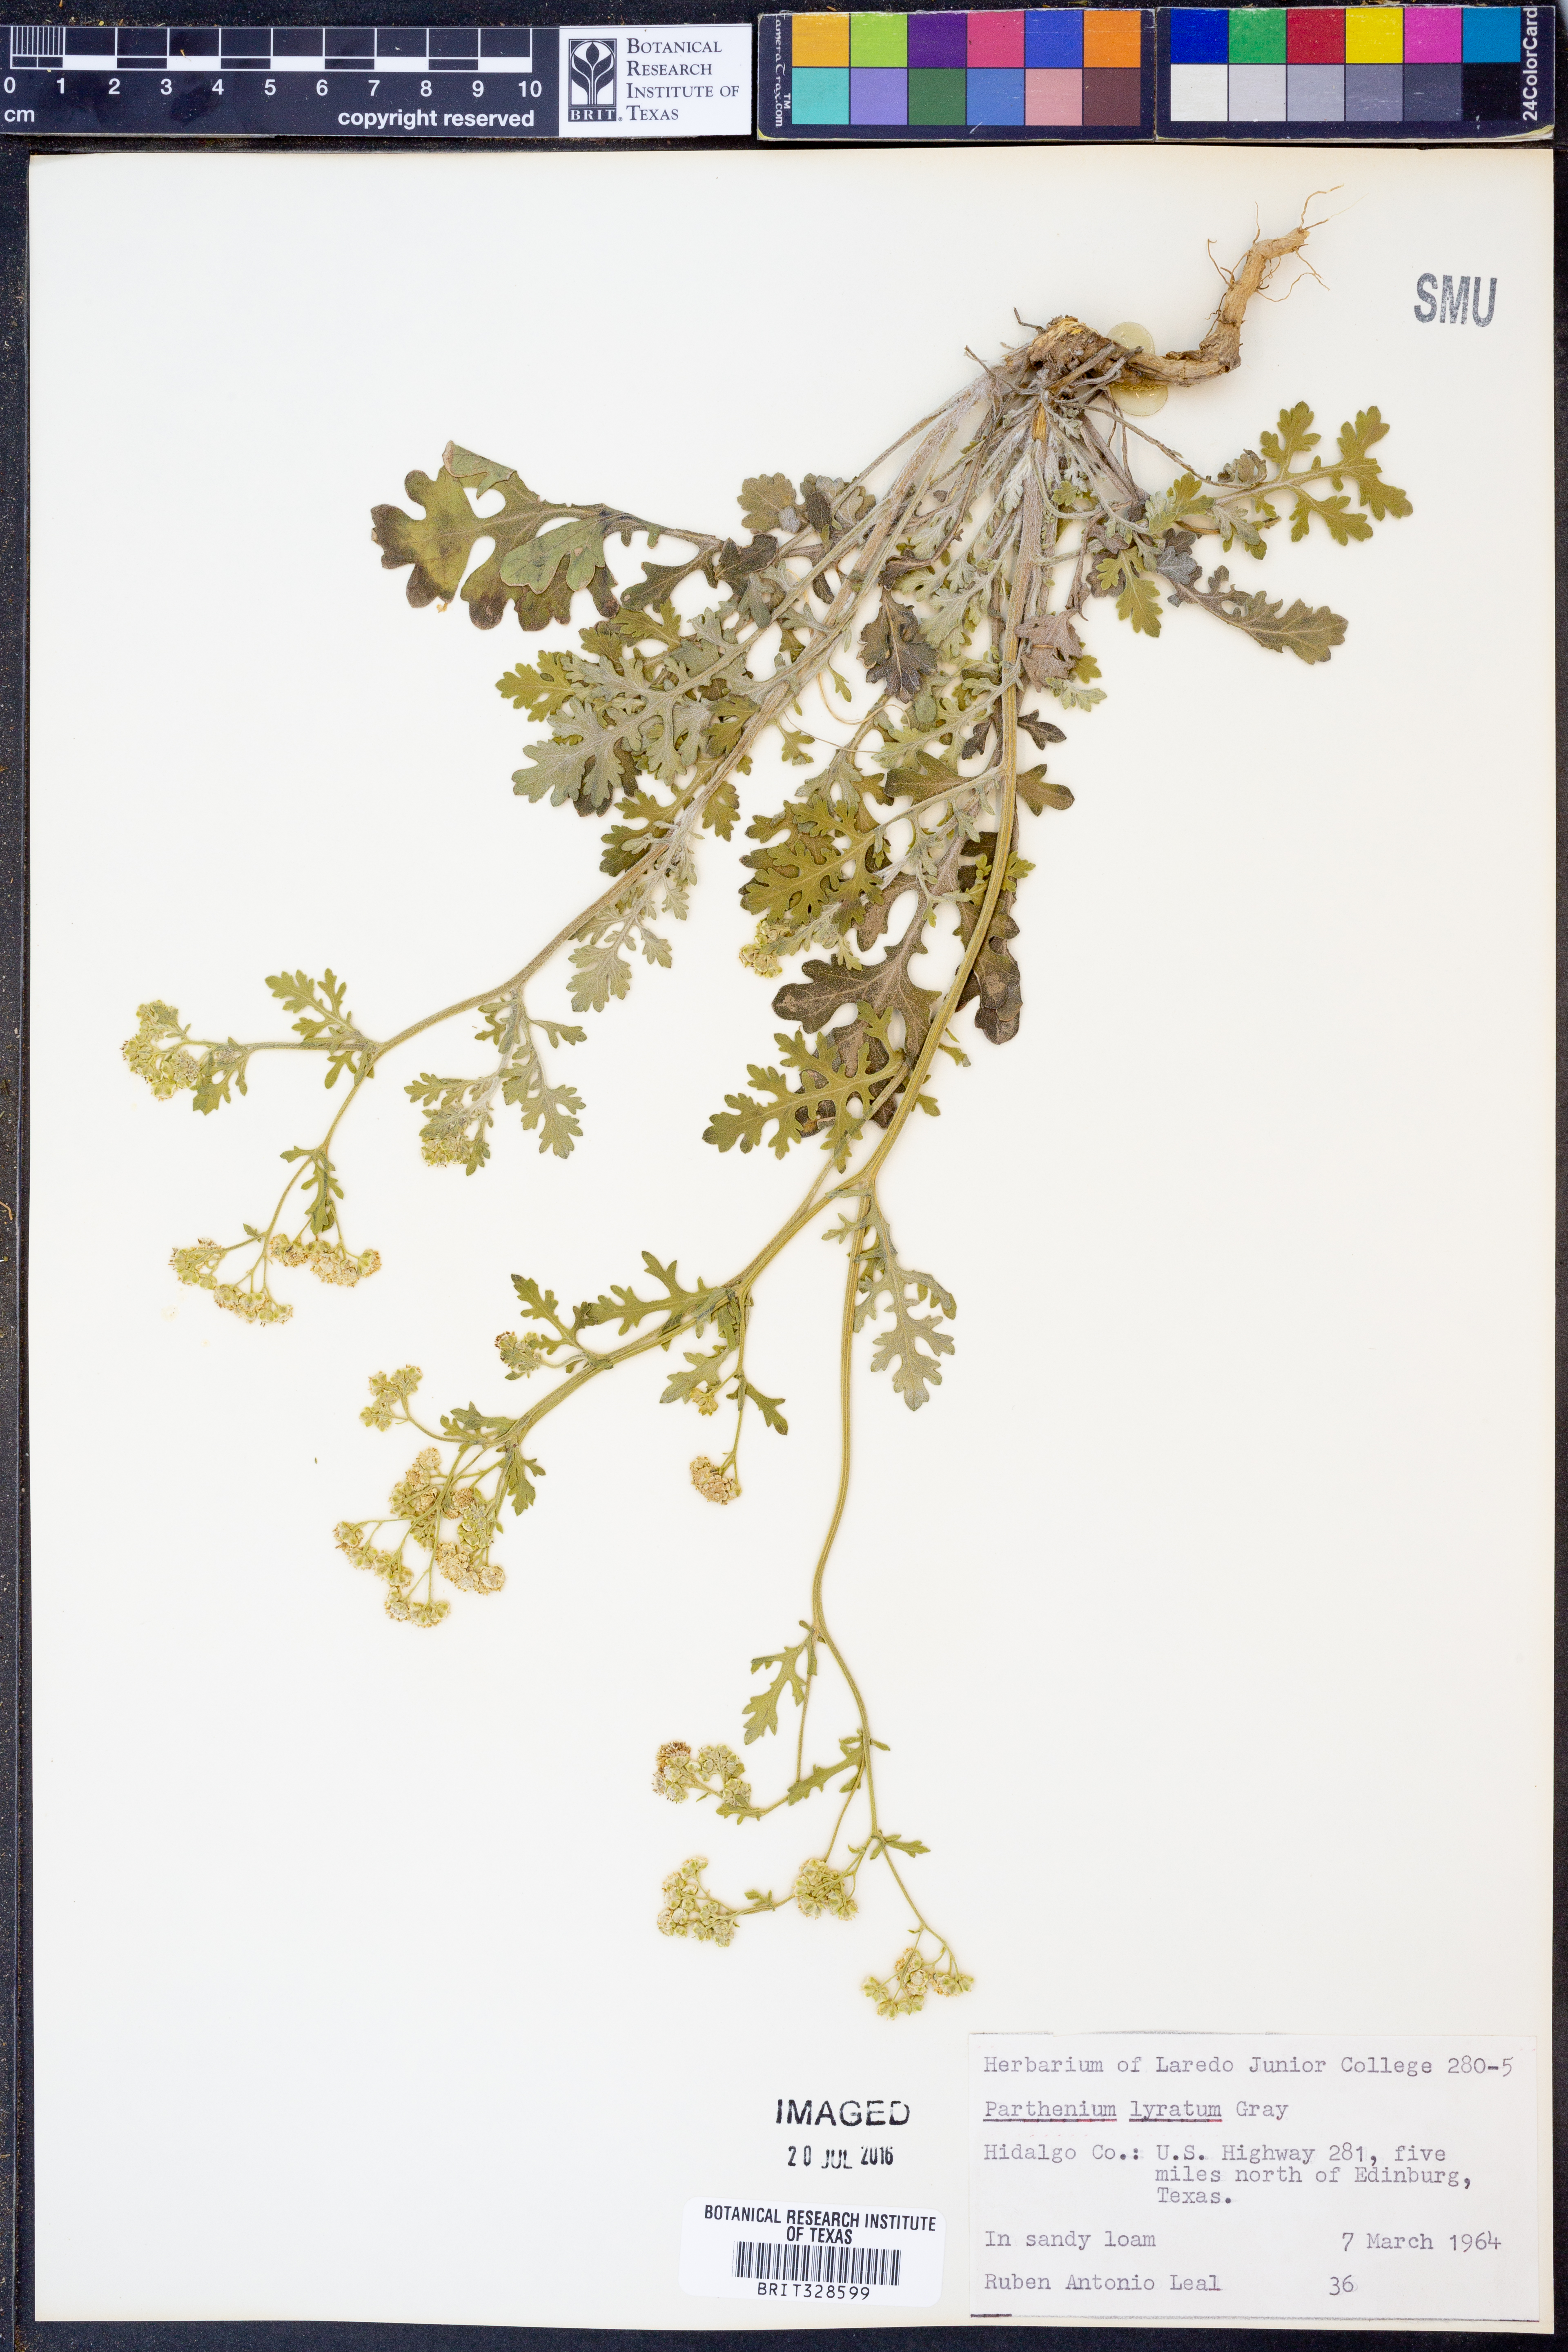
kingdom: Plantae
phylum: Tracheophyta
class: Magnoliopsida
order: Asterales
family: Asteraceae
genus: Parthenium
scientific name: Parthenium confertum
